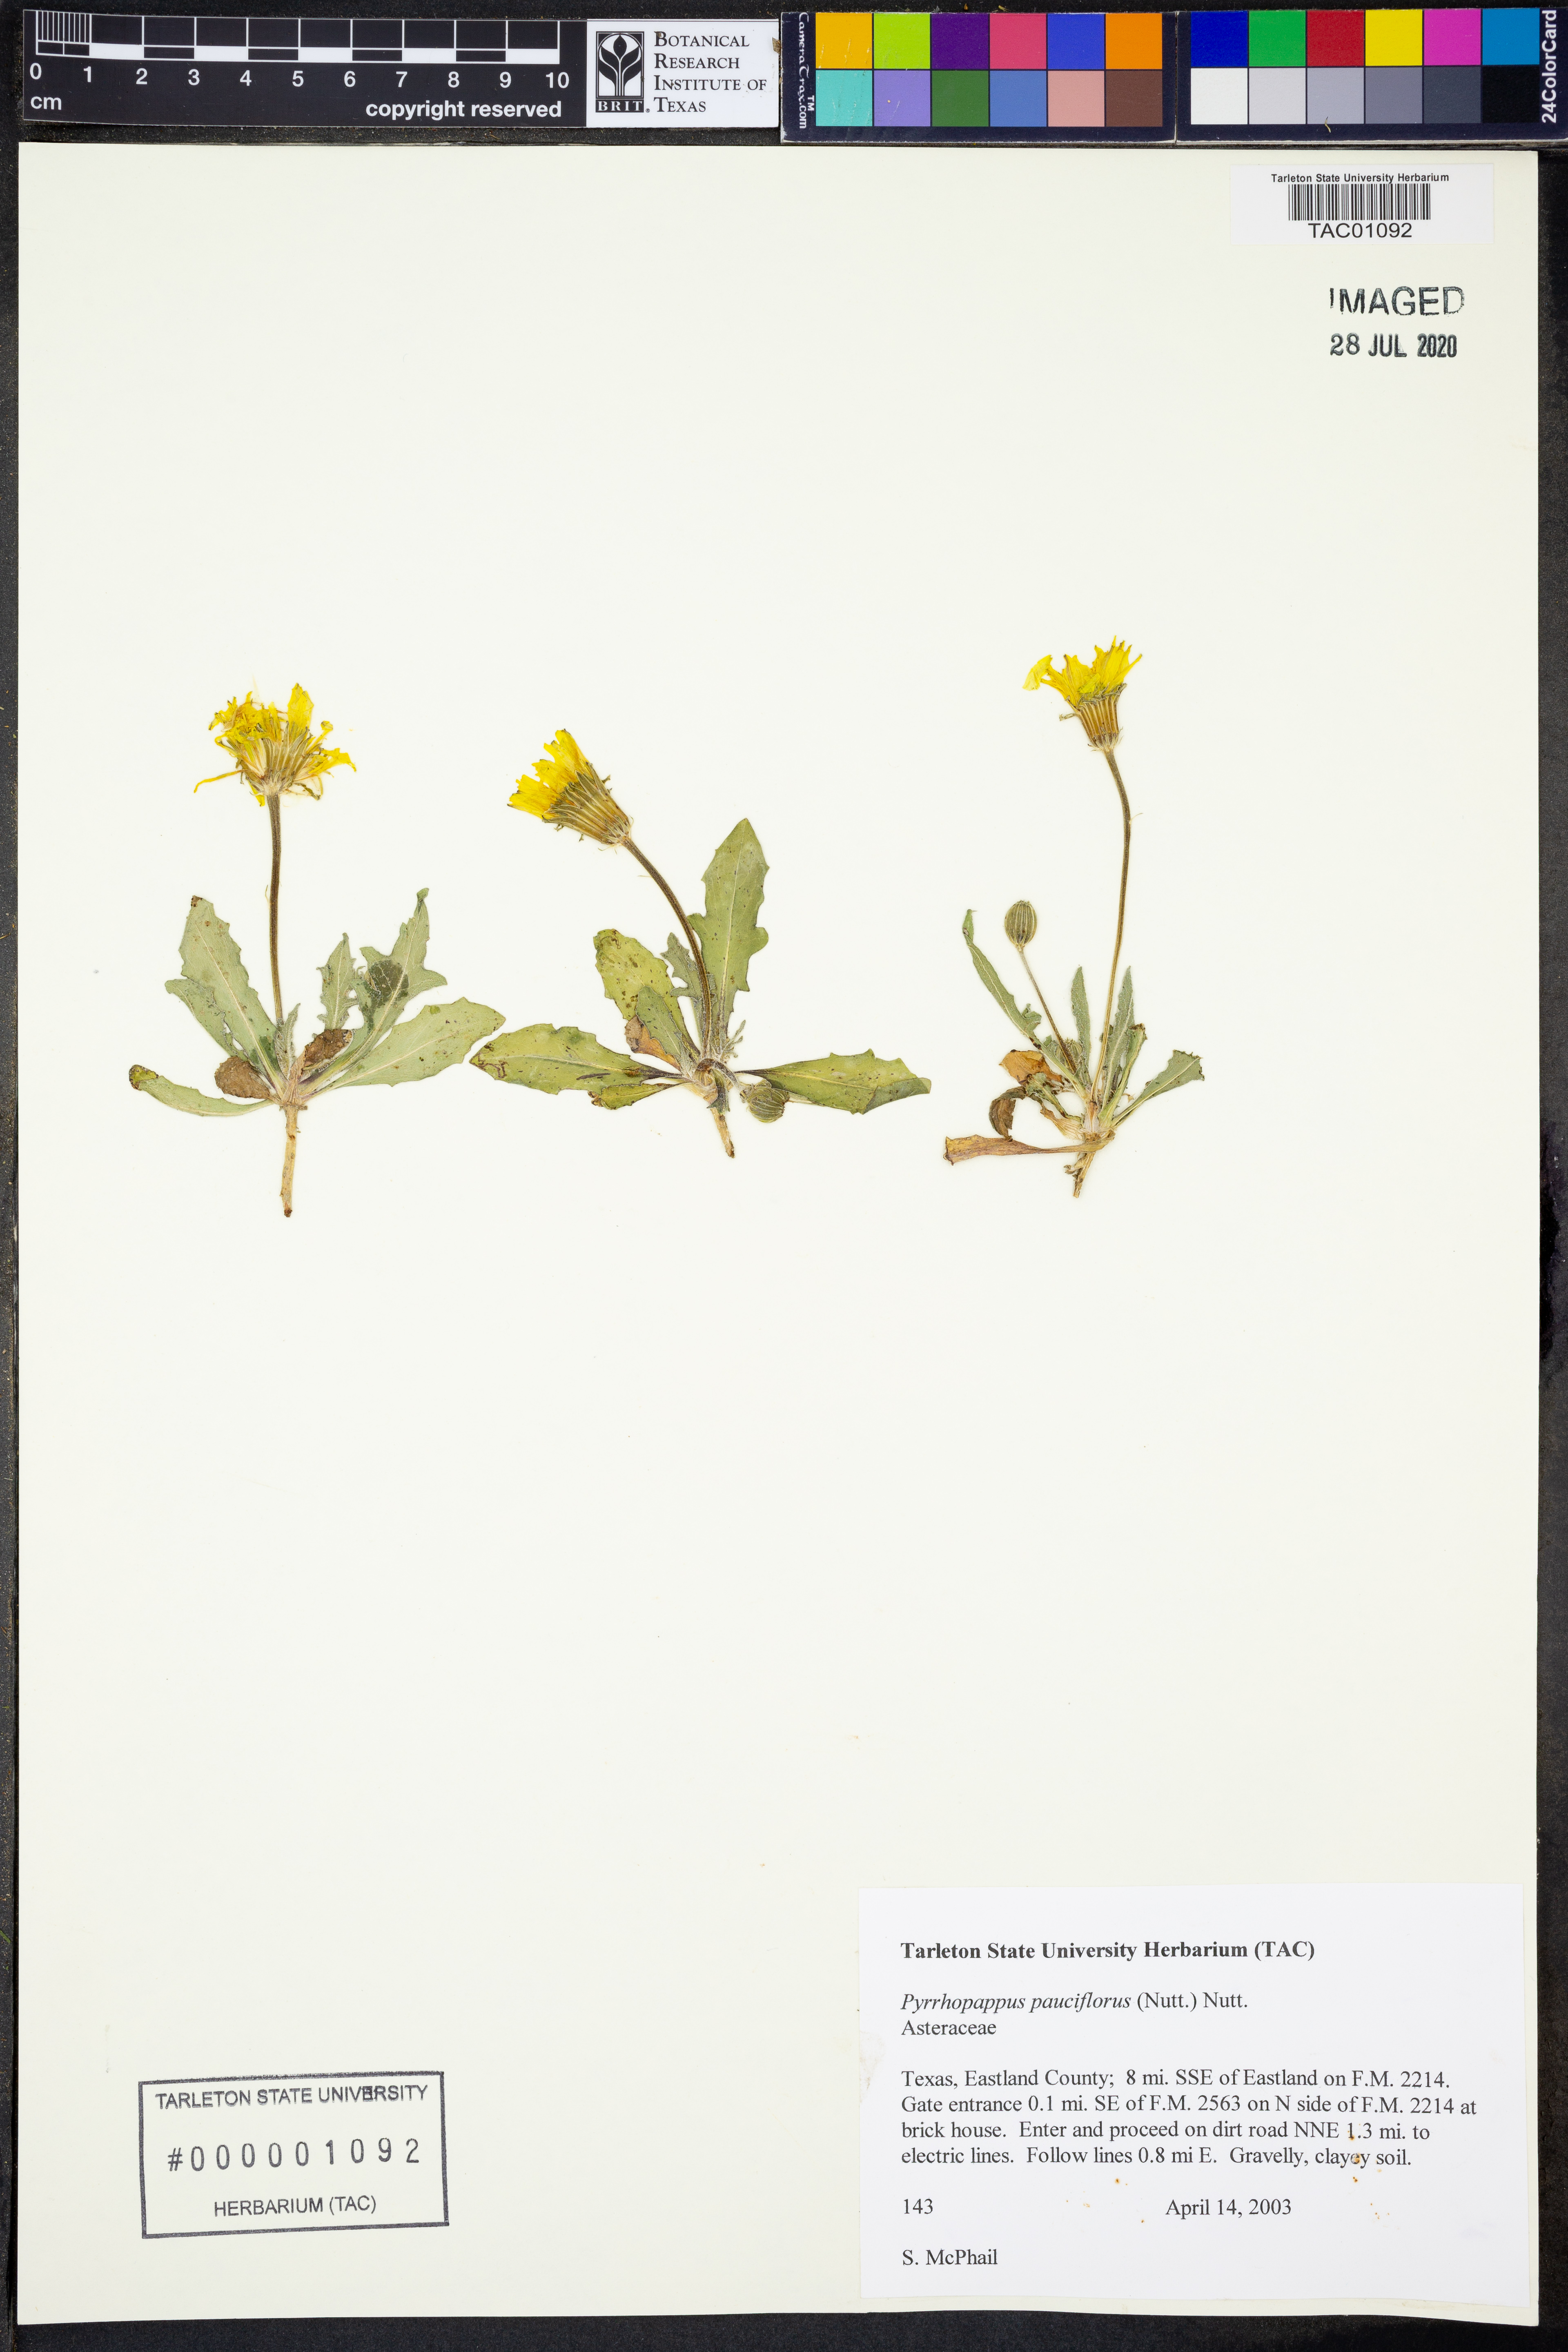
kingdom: Plantae
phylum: Tracheophyta
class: Magnoliopsida
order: Asterales
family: Asteraceae
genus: Pyrrhopappus
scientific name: Pyrrhopappus pauciflorus
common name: Texas false dandelion
